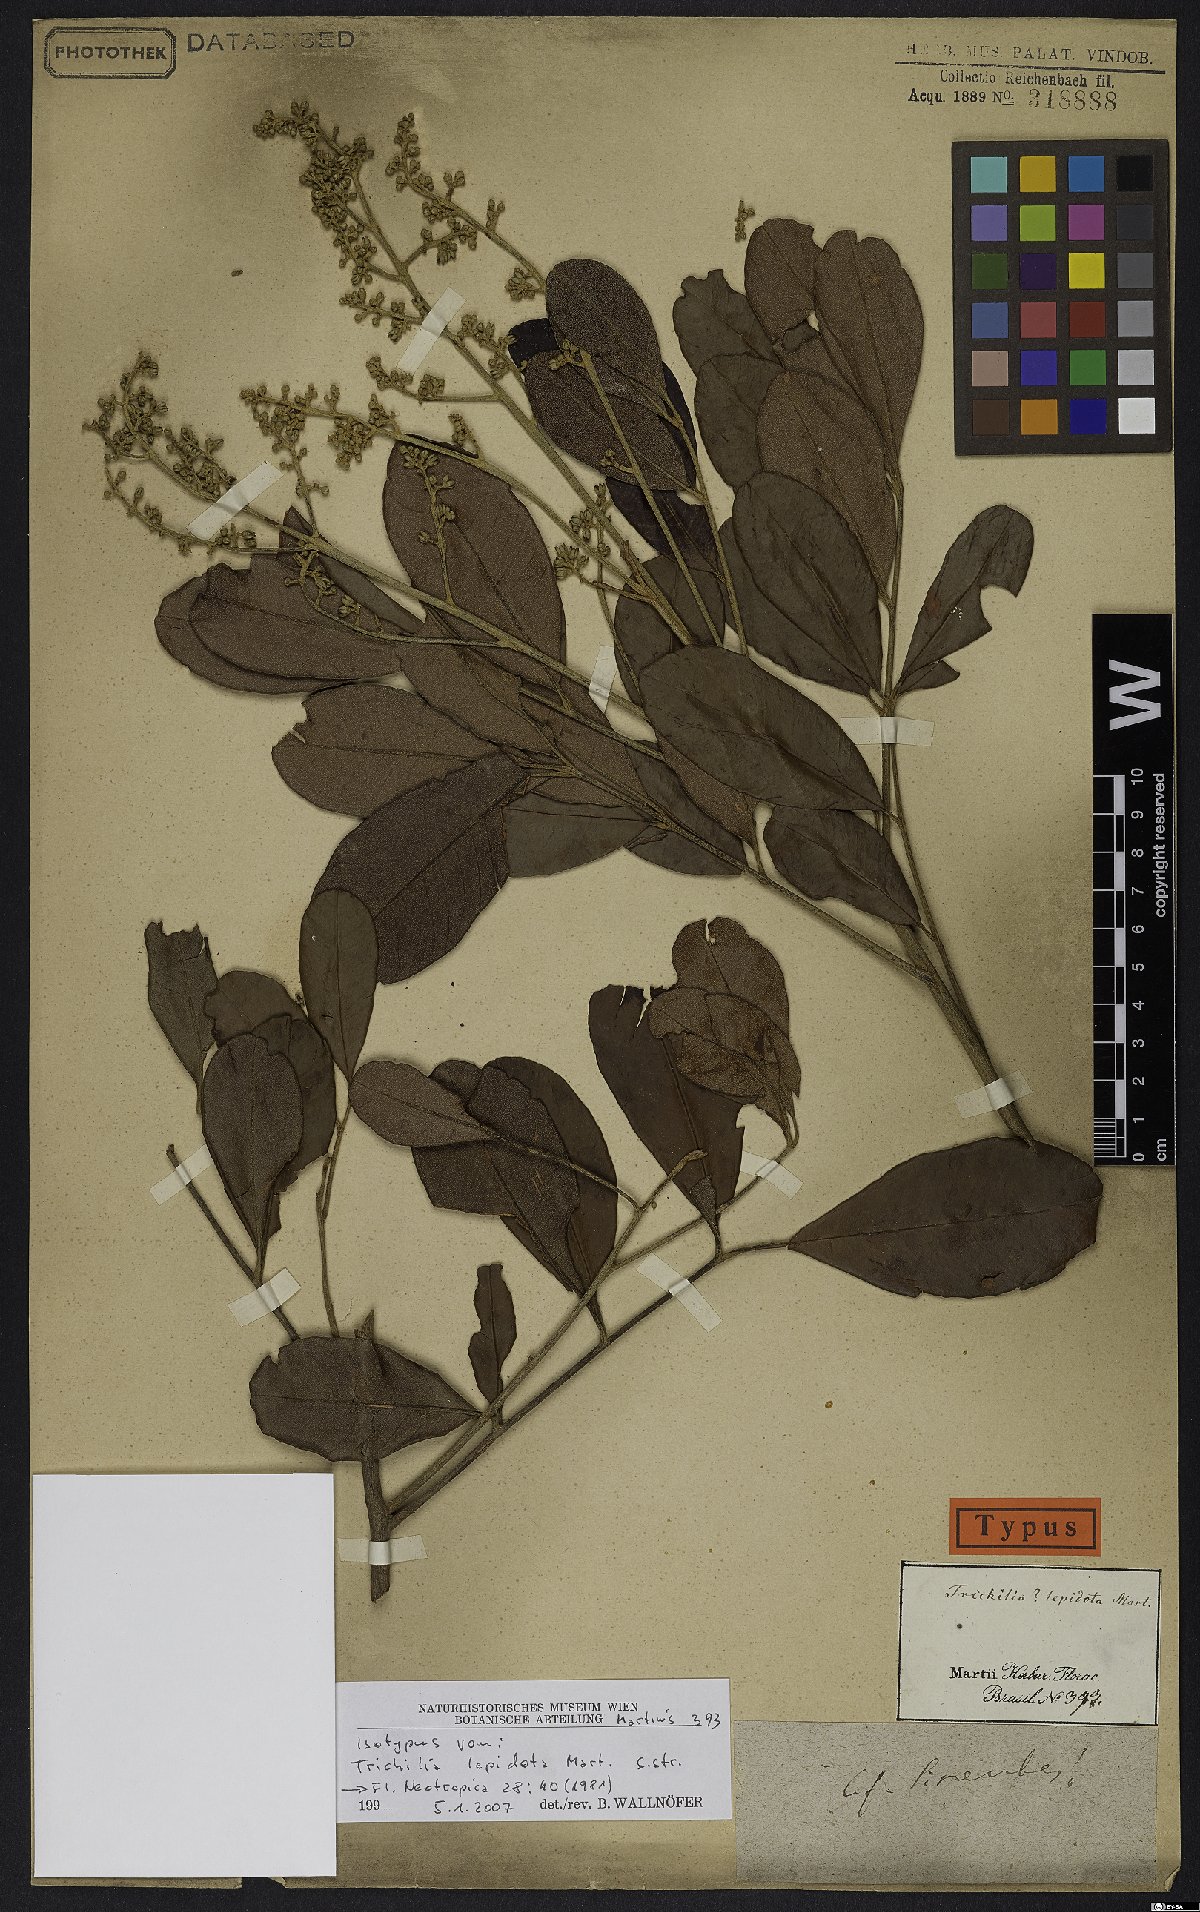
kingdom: Plantae
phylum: Tracheophyta
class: Magnoliopsida
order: Sapindales
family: Meliaceae
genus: Trichilia
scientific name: Trichilia lepidota
